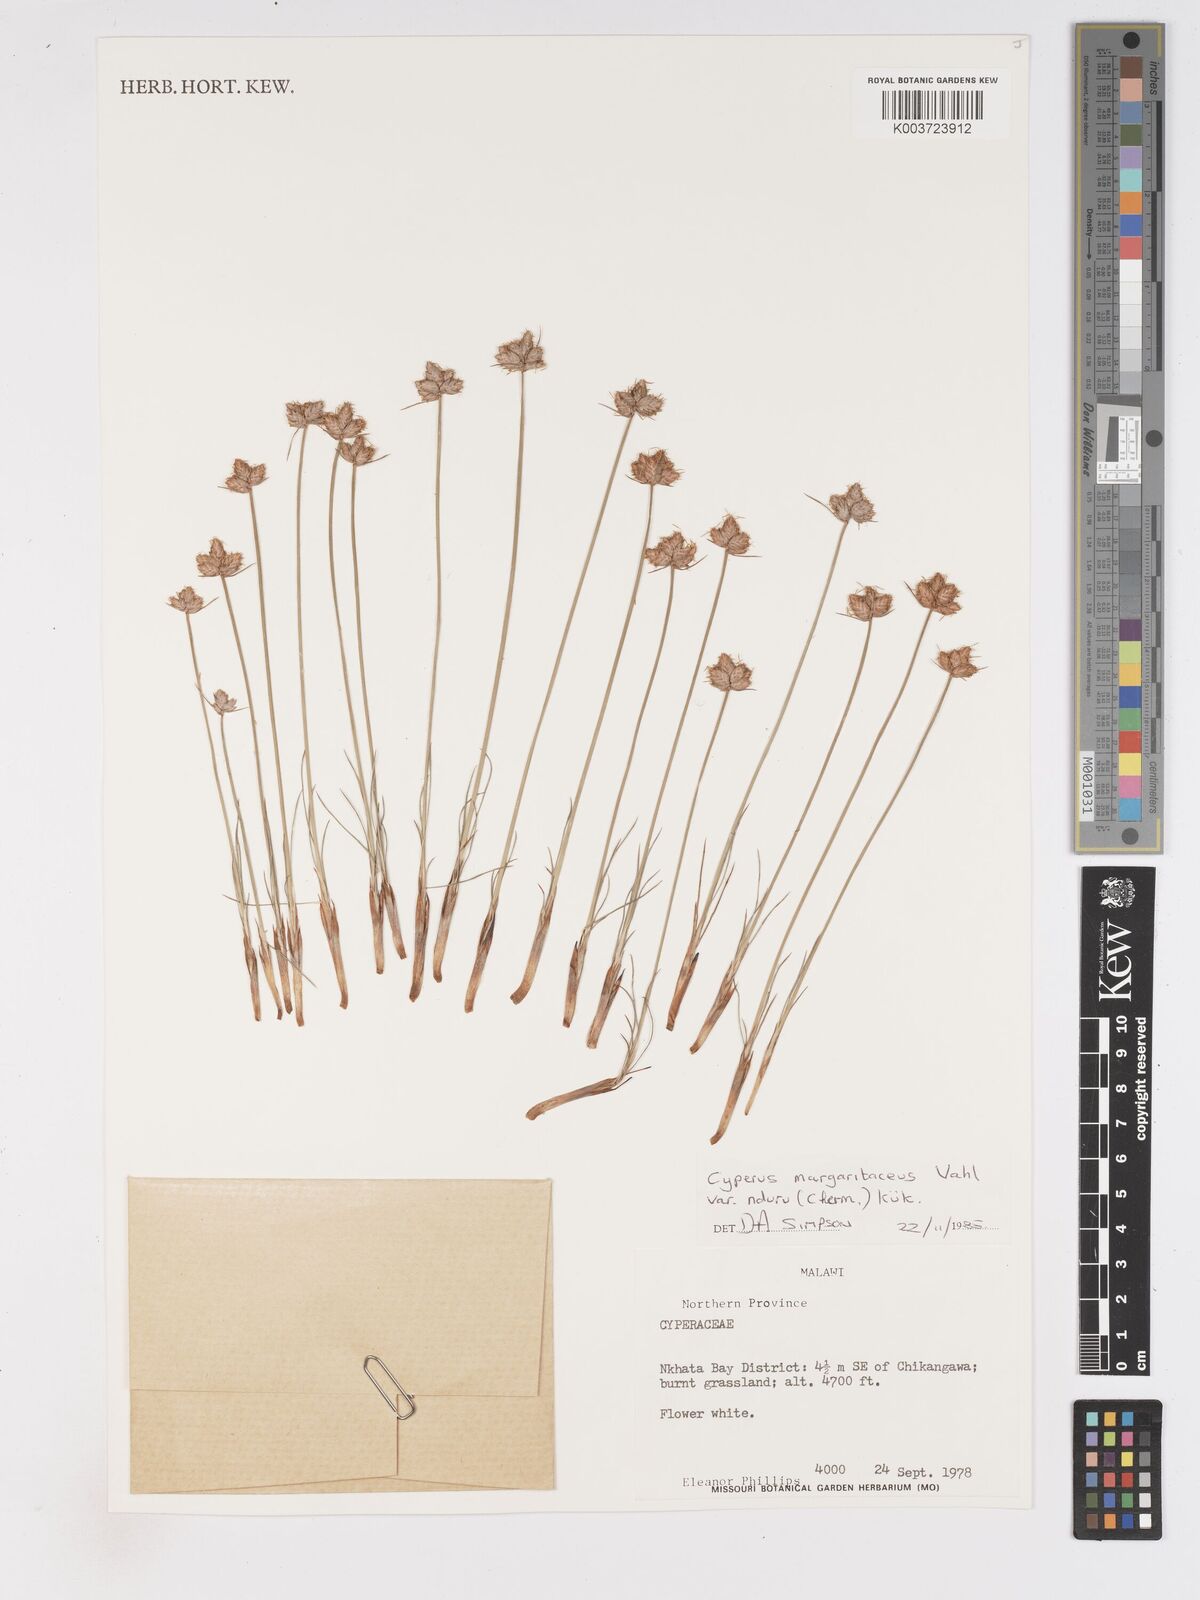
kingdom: Plantae
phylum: Tracheophyta
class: Liliopsida
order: Poales
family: Cyperaceae
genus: Cyperus
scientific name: Cyperus nduru
